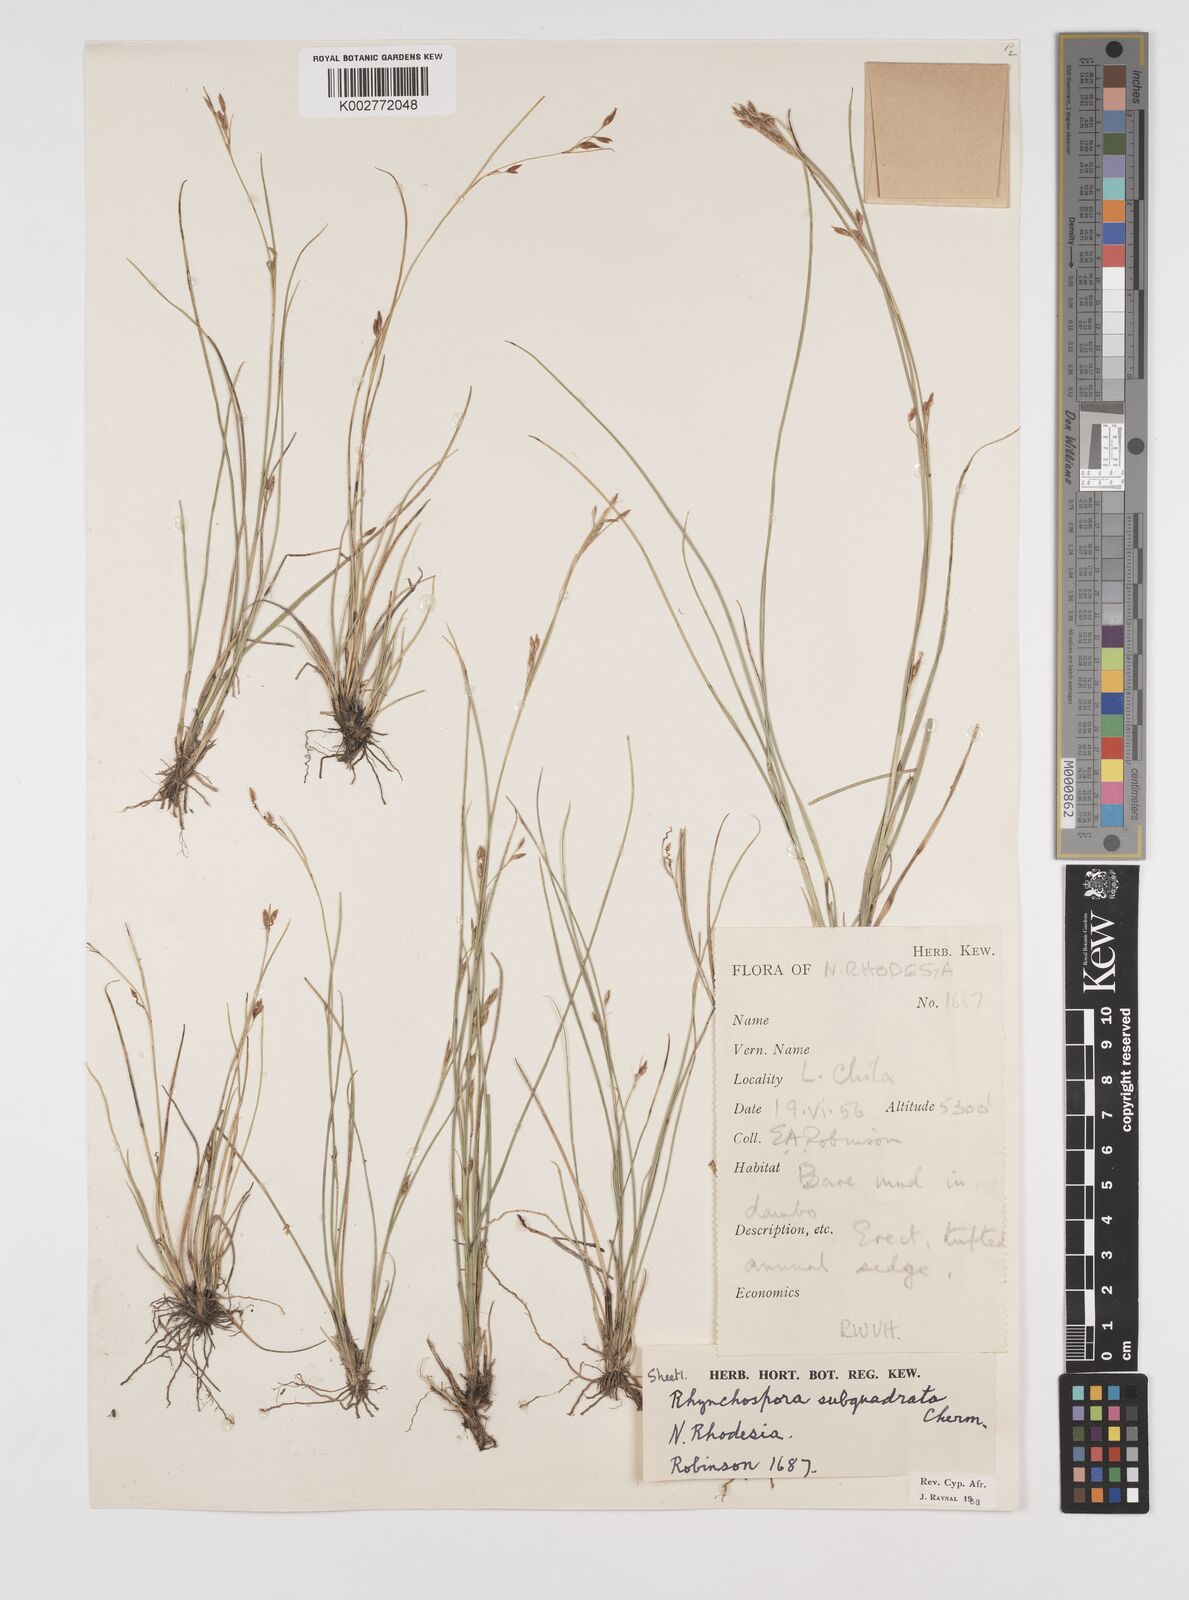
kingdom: Plantae
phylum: Tracheophyta
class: Liliopsida
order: Poales
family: Cyperaceae
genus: Rhynchospora
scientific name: Rhynchospora gracillima
